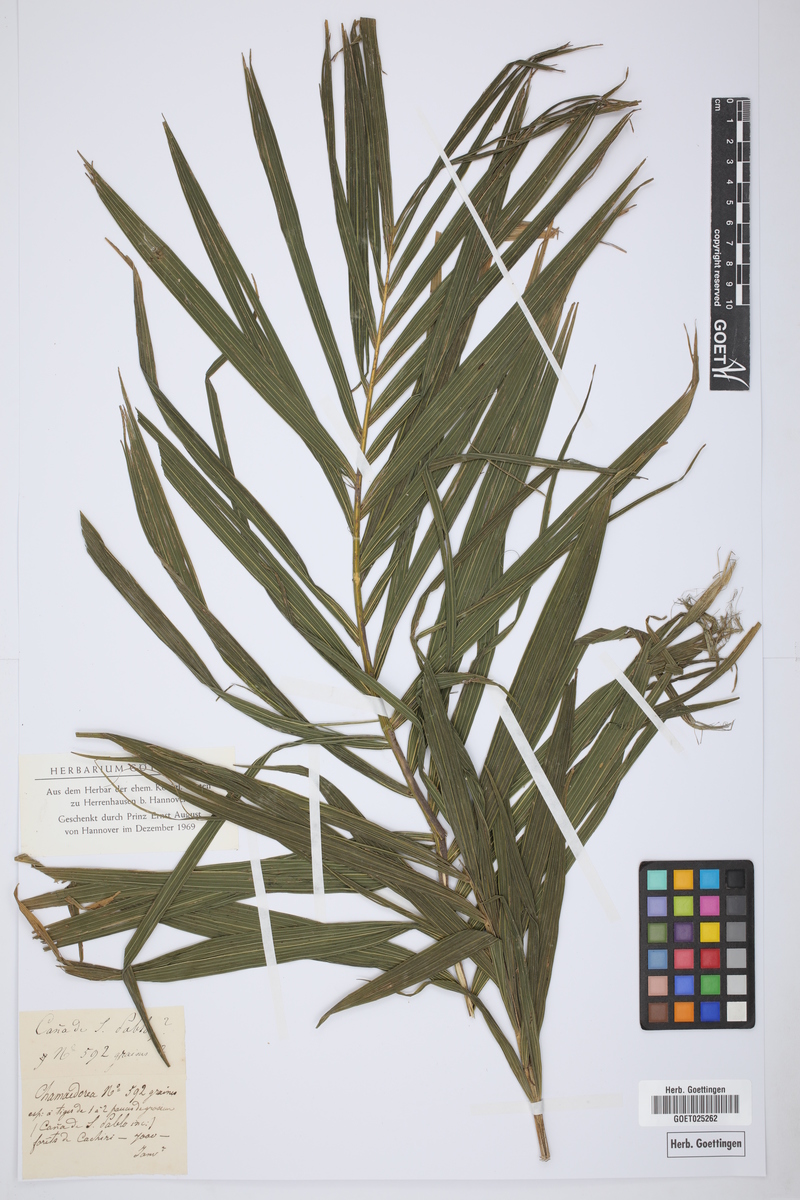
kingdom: Plantae
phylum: Tracheophyta
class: Liliopsida
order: Arecales
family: Arecaceae
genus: Chamaedorea
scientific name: Chamaedorea
